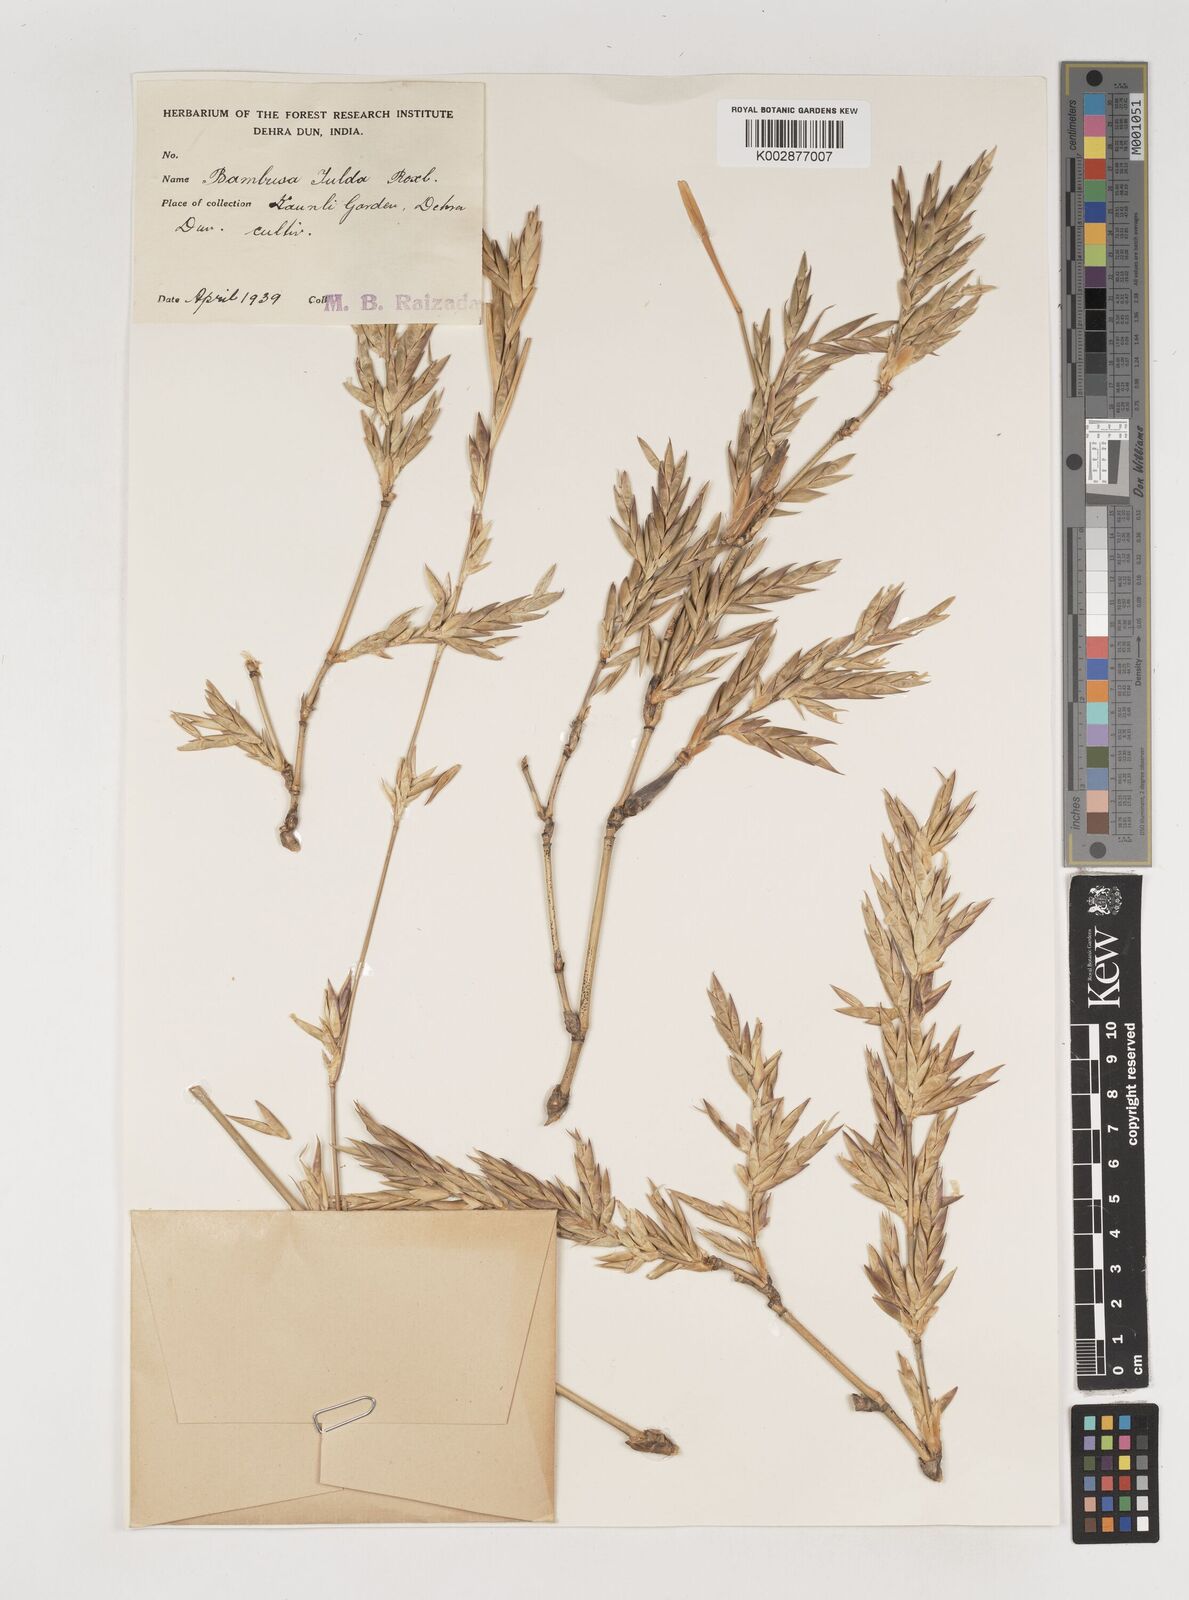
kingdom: Plantae
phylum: Tracheophyta
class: Liliopsida
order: Poales
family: Poaceae
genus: Bambusa
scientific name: Bambusa tulda
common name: Bengal bamboo
